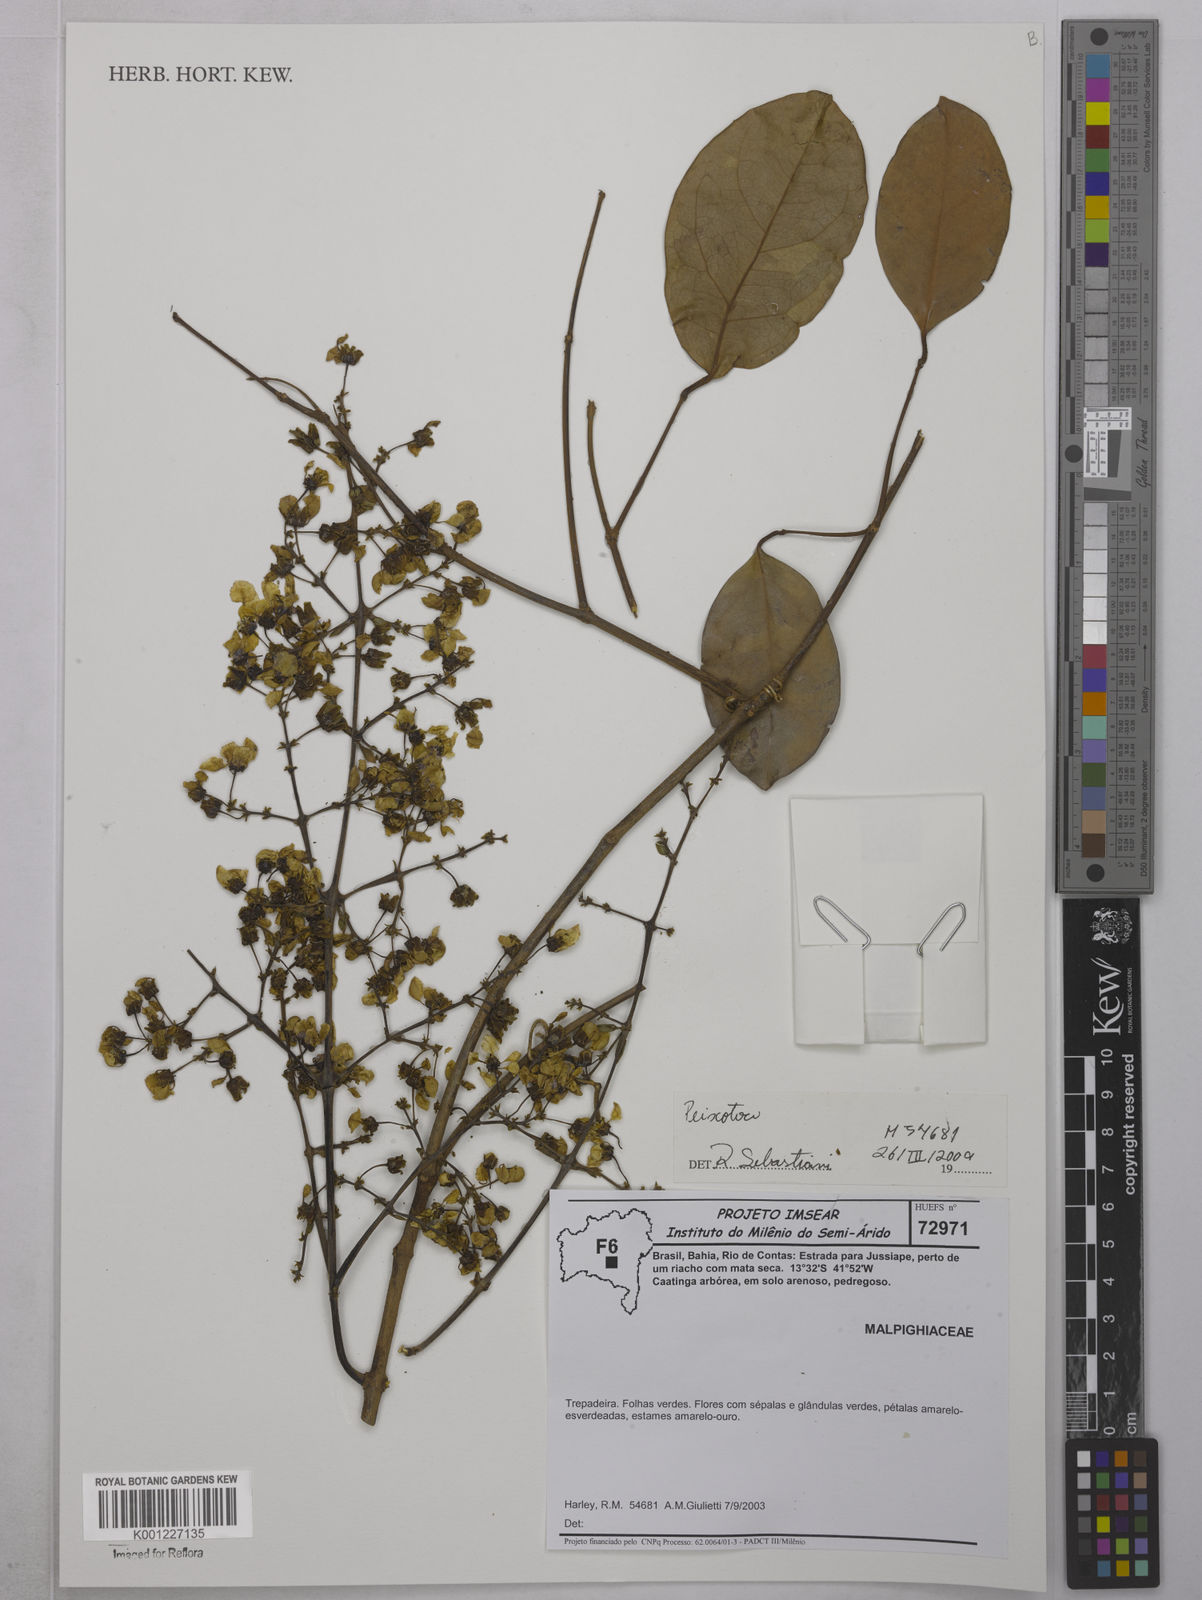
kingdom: Plantae
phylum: Tracheophyta
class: Magnoliopsida
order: Malpighiales
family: Malpighiaceae
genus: Peixotoa
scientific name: Peixotoa
